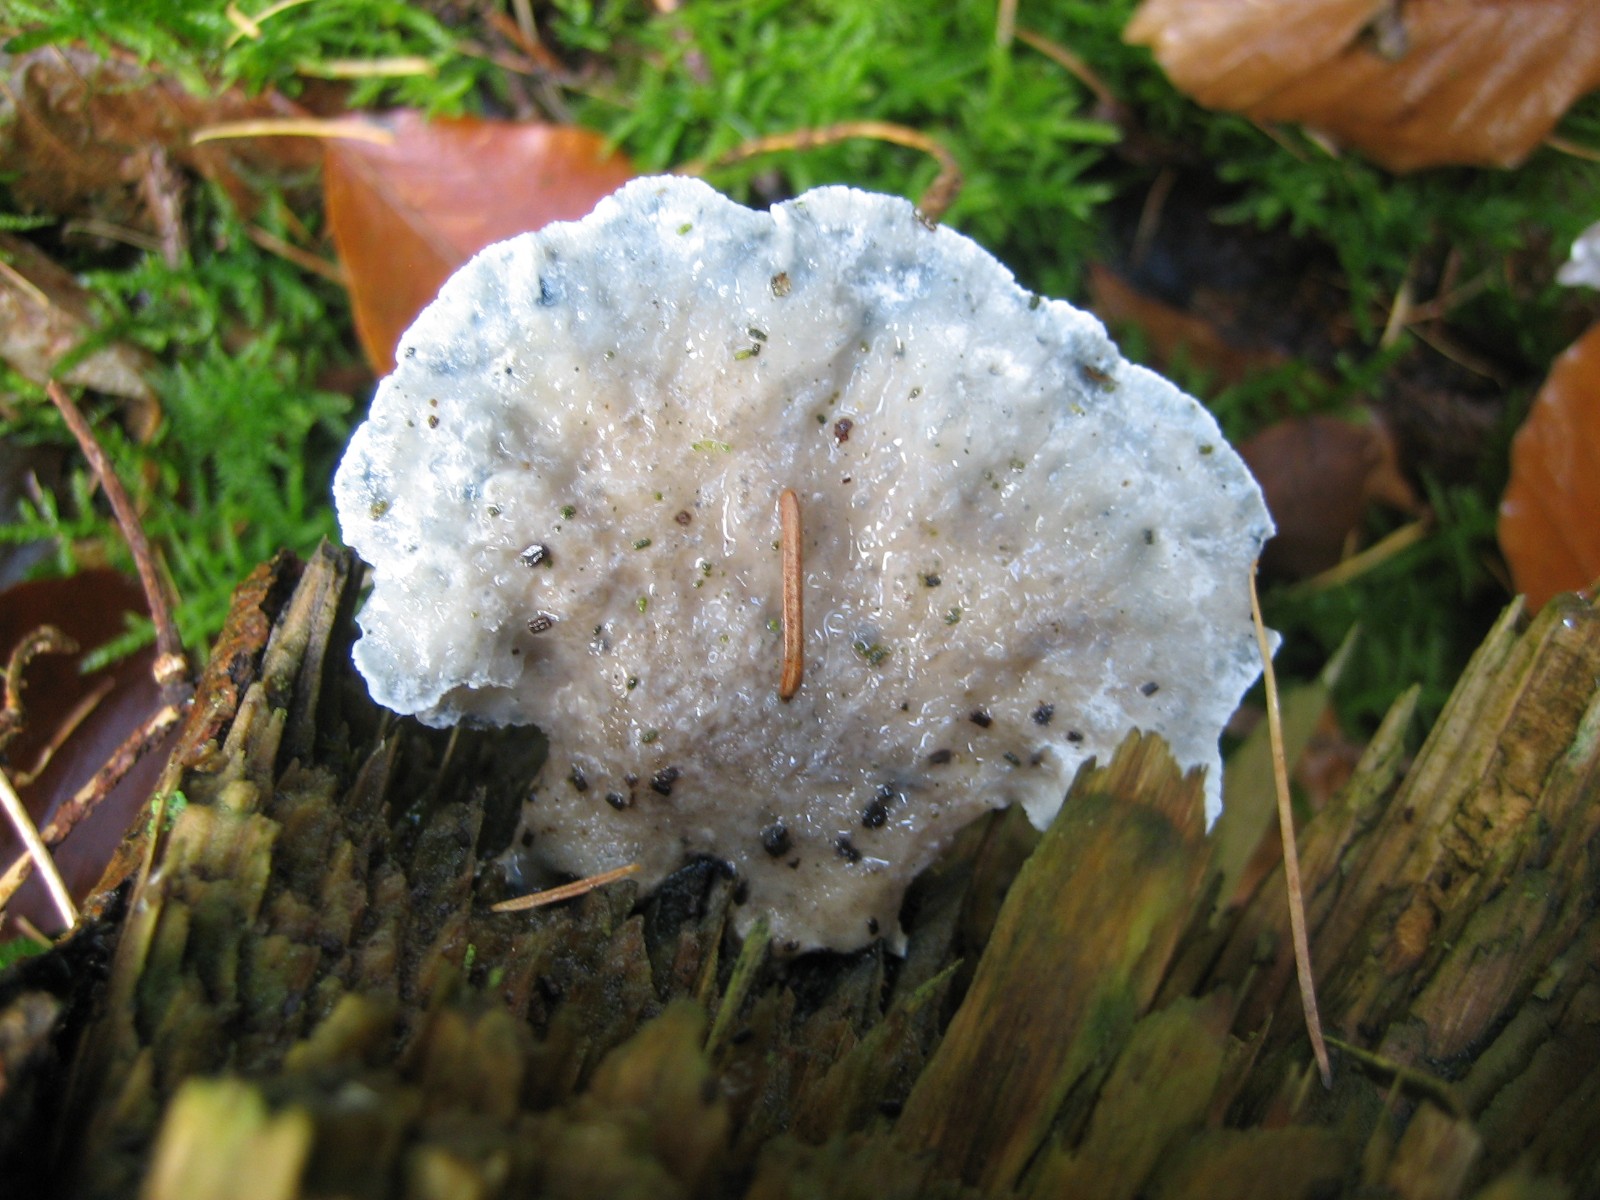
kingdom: Fungi
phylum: Basidiomycota
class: Agaricomycetes
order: Polyporales
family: Polyporaceae
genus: Cyanosporus
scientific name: Cyanosporus caesius
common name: blålig kødporesvamp
